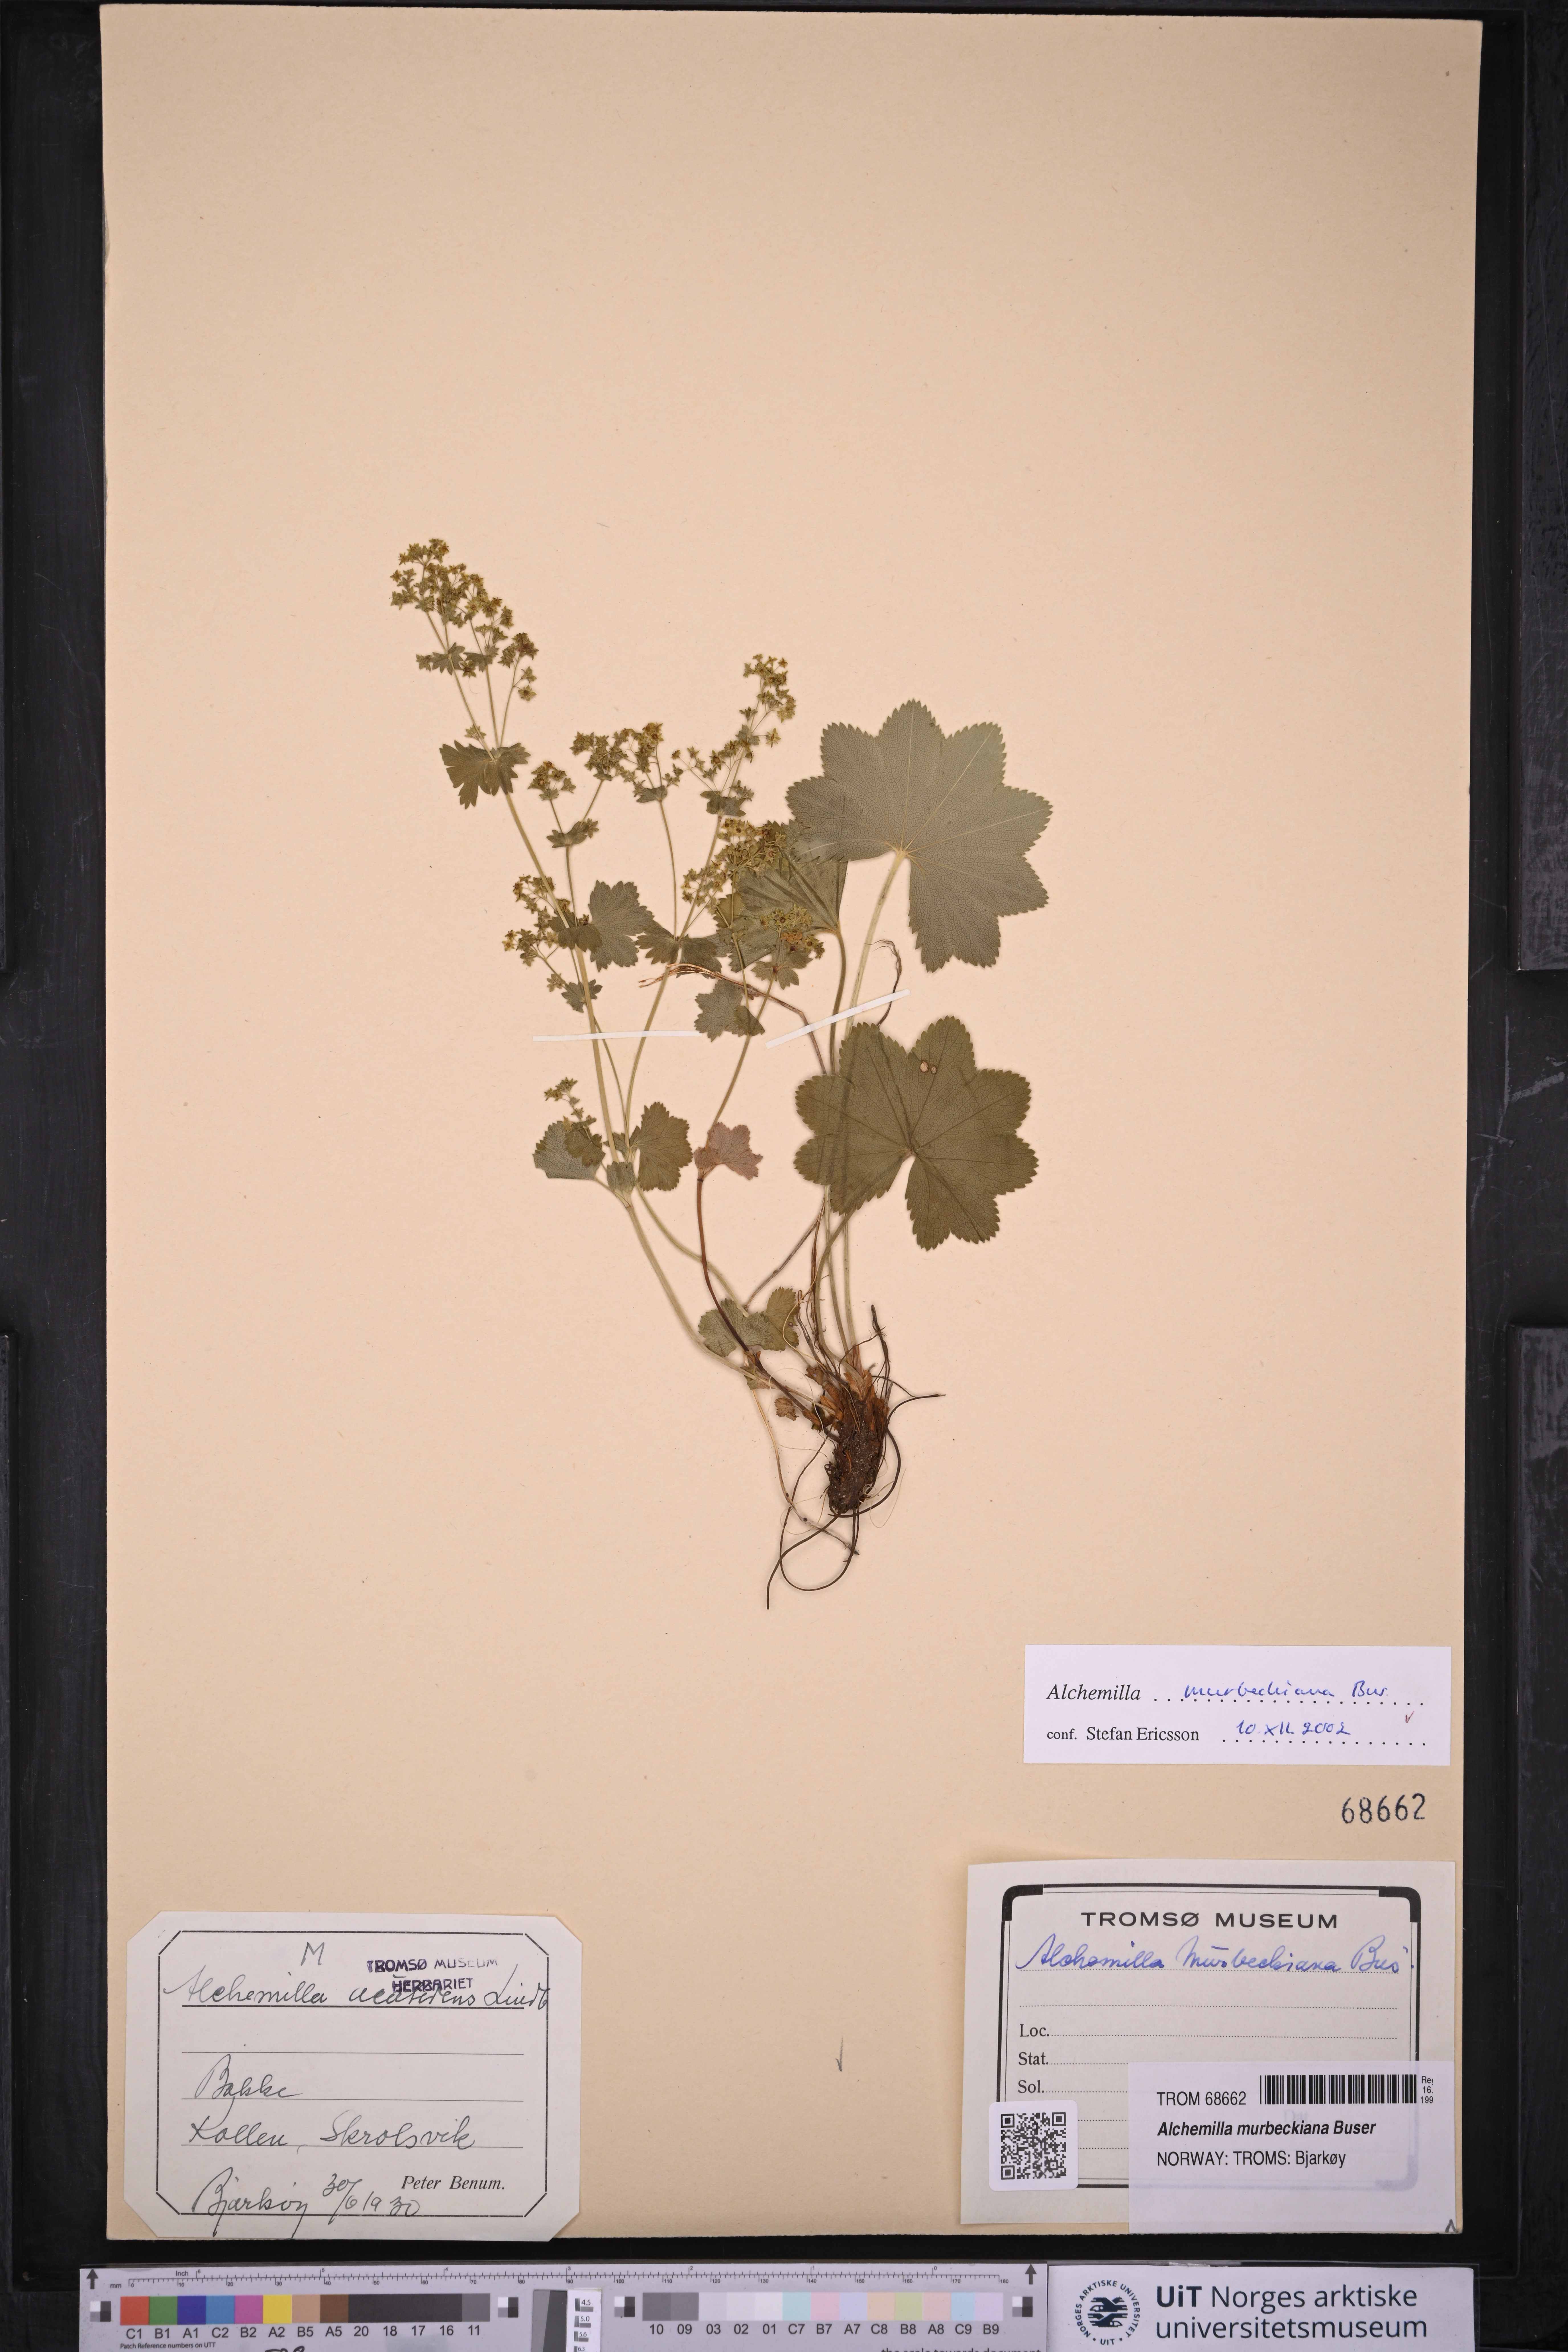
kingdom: Plantae
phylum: Tracheophyta
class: Magnoliopsida
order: Rosales
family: Rosaceae
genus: Alchemilla
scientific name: Alchemilla acutidens
